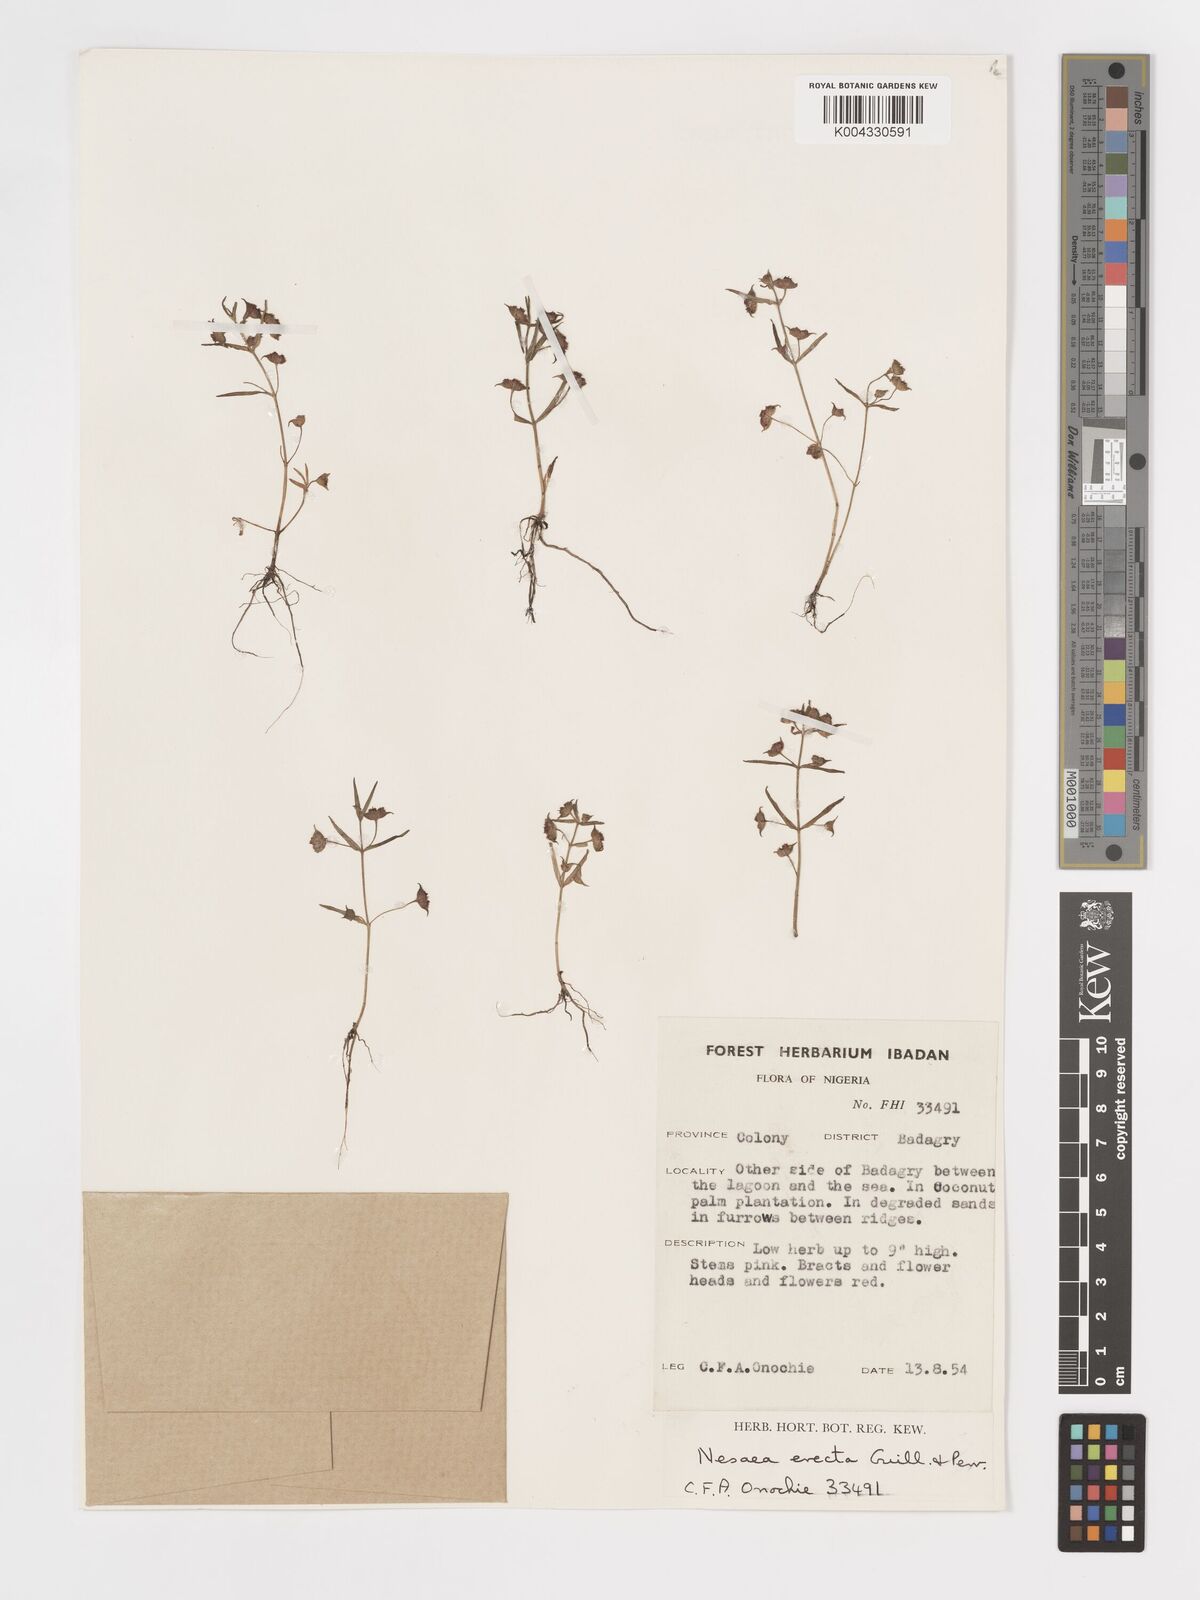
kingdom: Plantae
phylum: Tracheophyta
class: Magnoliopsida
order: Myrtales
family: Lythraceae
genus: Ammannia
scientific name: Ammannia erecta
